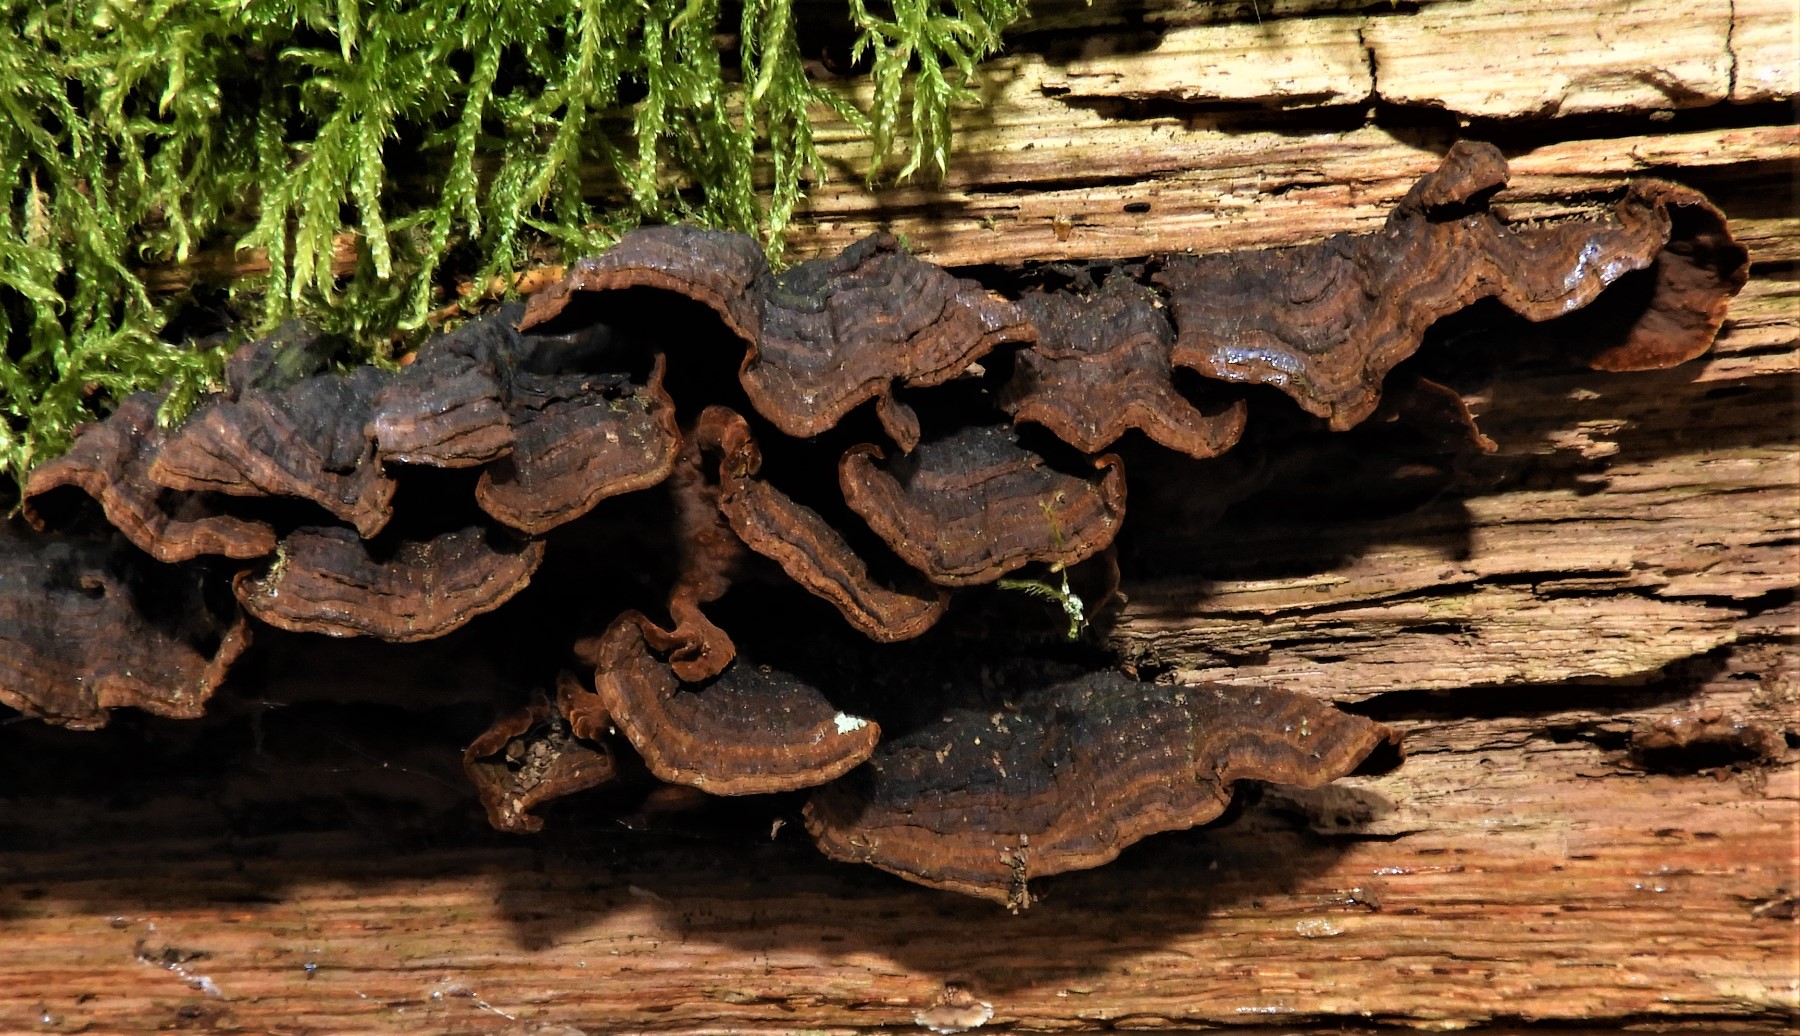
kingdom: Fungi
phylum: Basidiomycota
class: Agaricomycetes
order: Hymenochaetales
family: Hymenochaetaceae
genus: Hymenochaete
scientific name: Hymenochaete rubiginosa
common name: stiv ruslædersvamp
